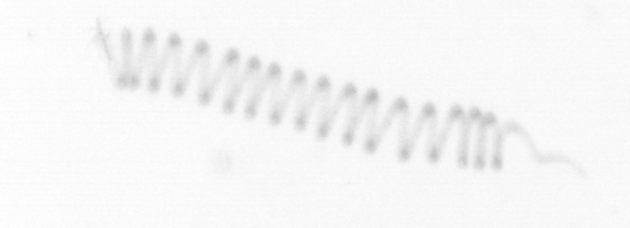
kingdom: Chromista
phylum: Ochrophyta
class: Bacillariophyceae
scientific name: Bacillariophyceae
